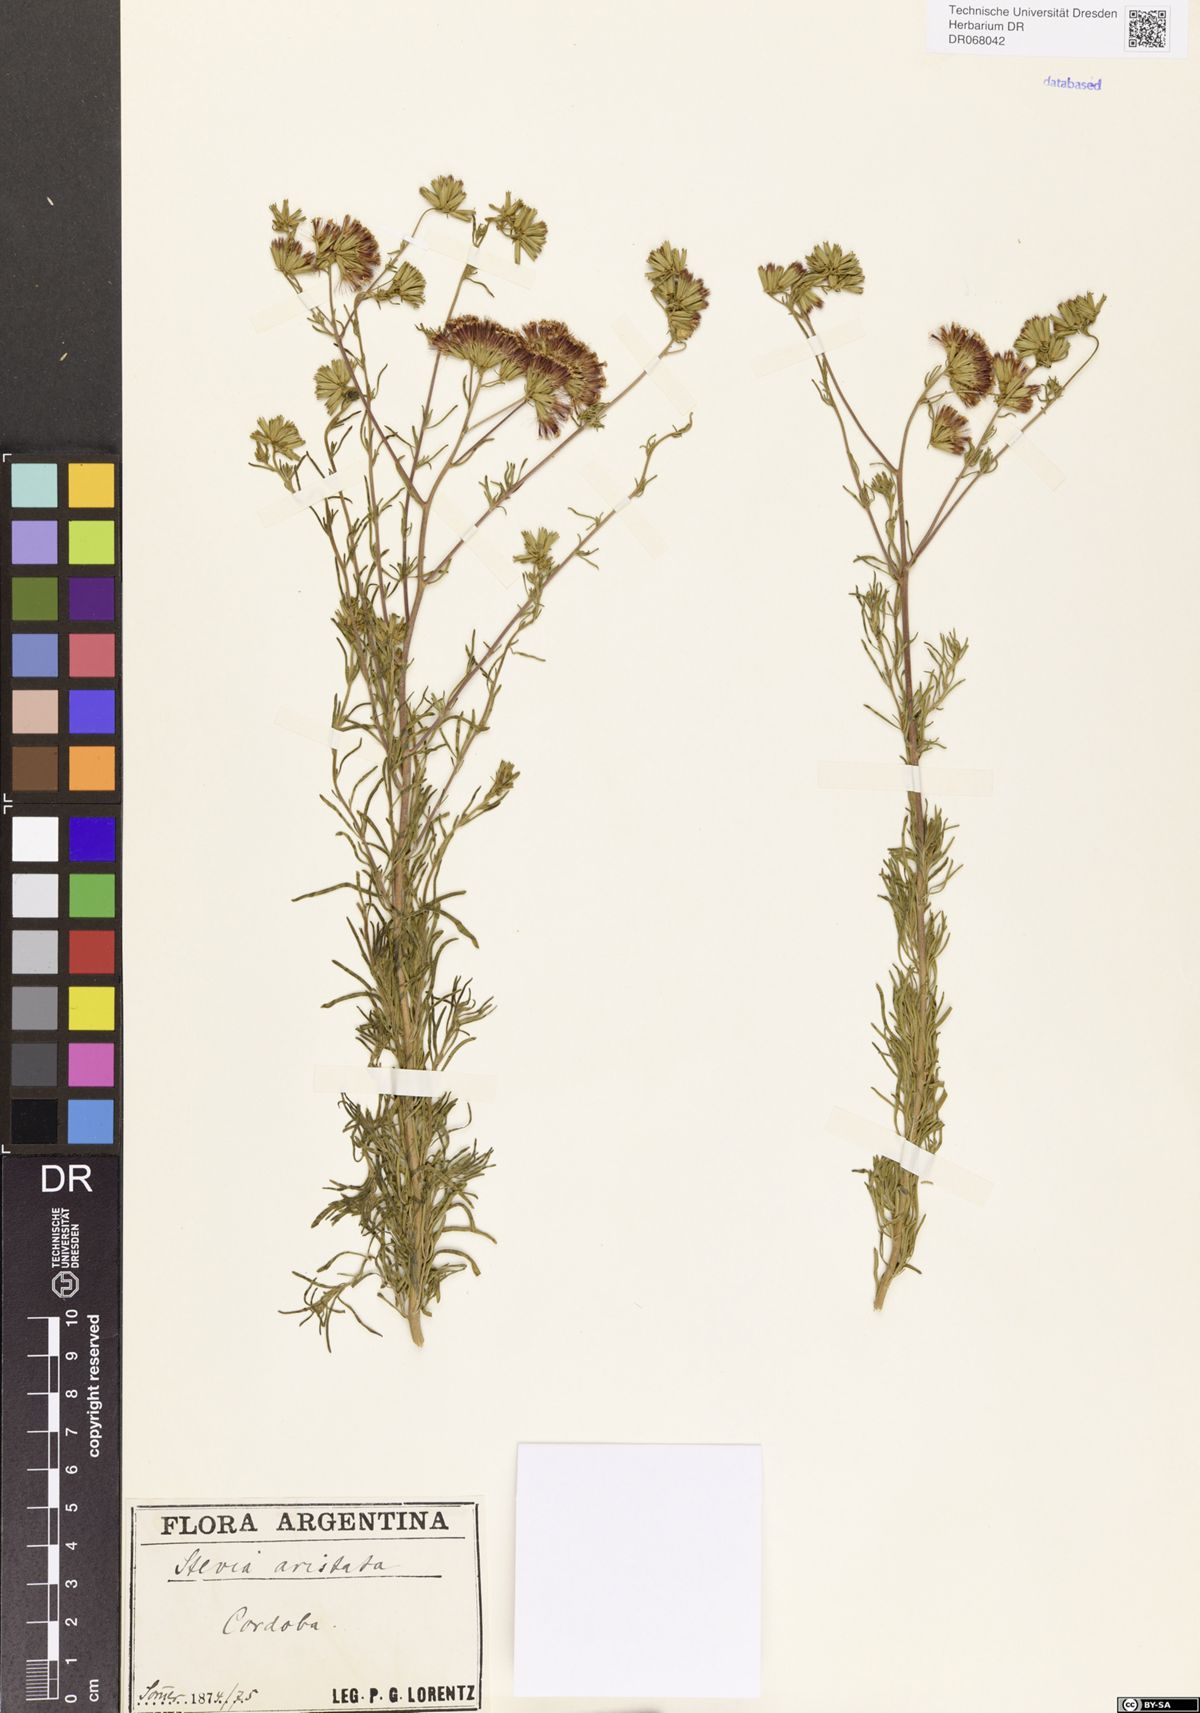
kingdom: Plantae
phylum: Tracheophyta
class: Magnoliopsida
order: Asterales
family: Asteraceae
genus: Stevia
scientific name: Stevia aristata
